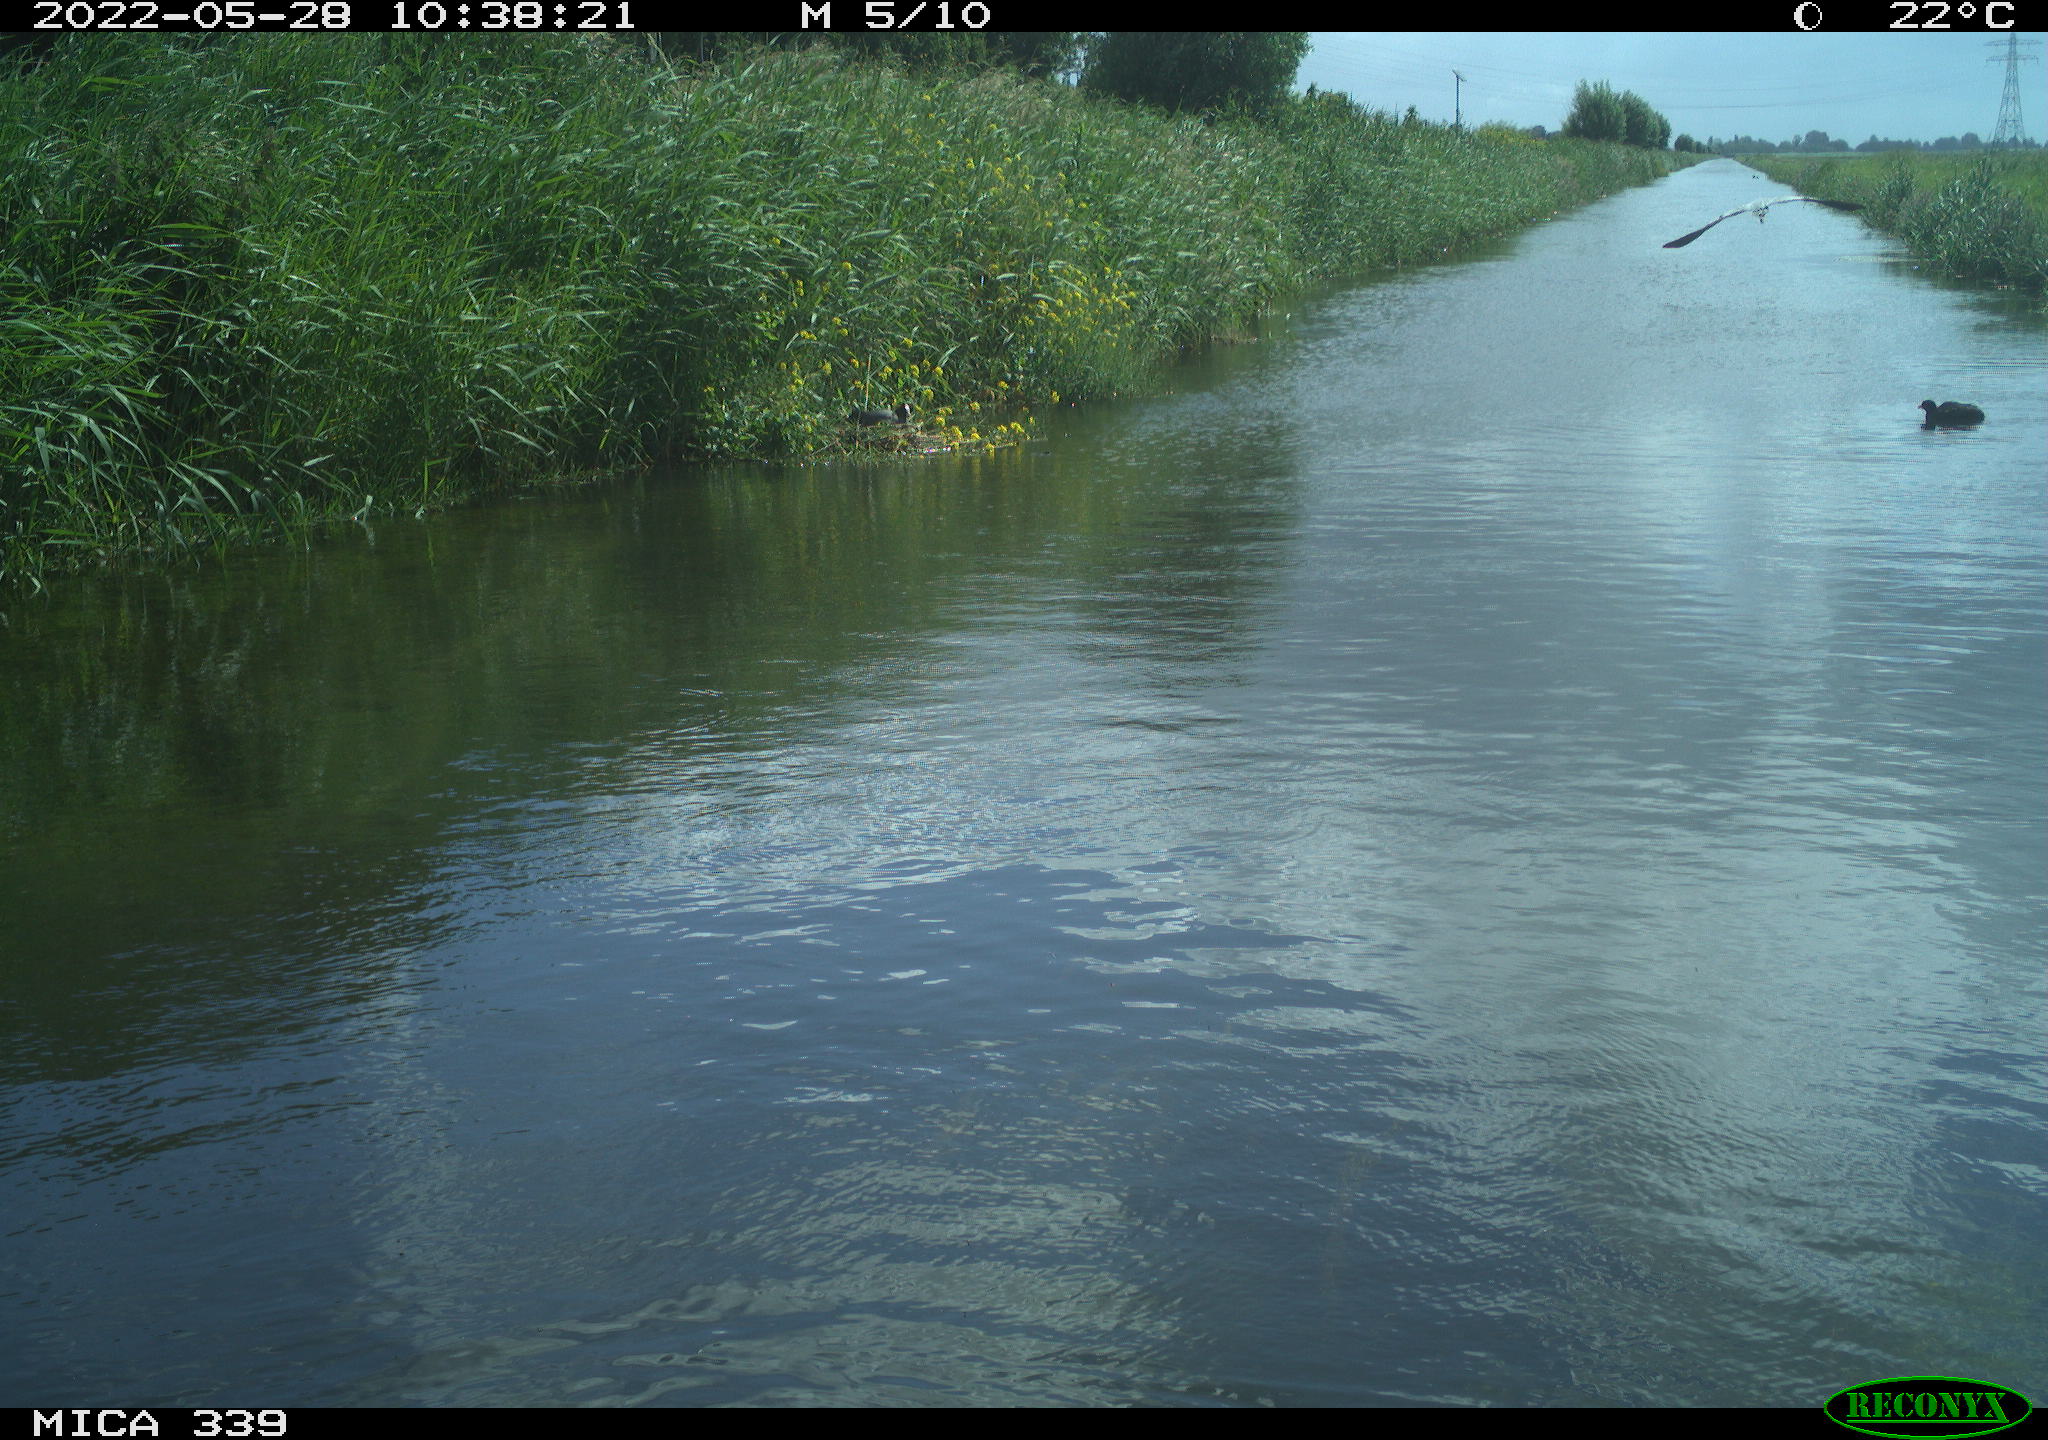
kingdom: Animalia
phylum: Chordata
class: Aves
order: Pelecaniformes
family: Ardeidae
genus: Ardea
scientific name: Ardea cinerea
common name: Grey heron
